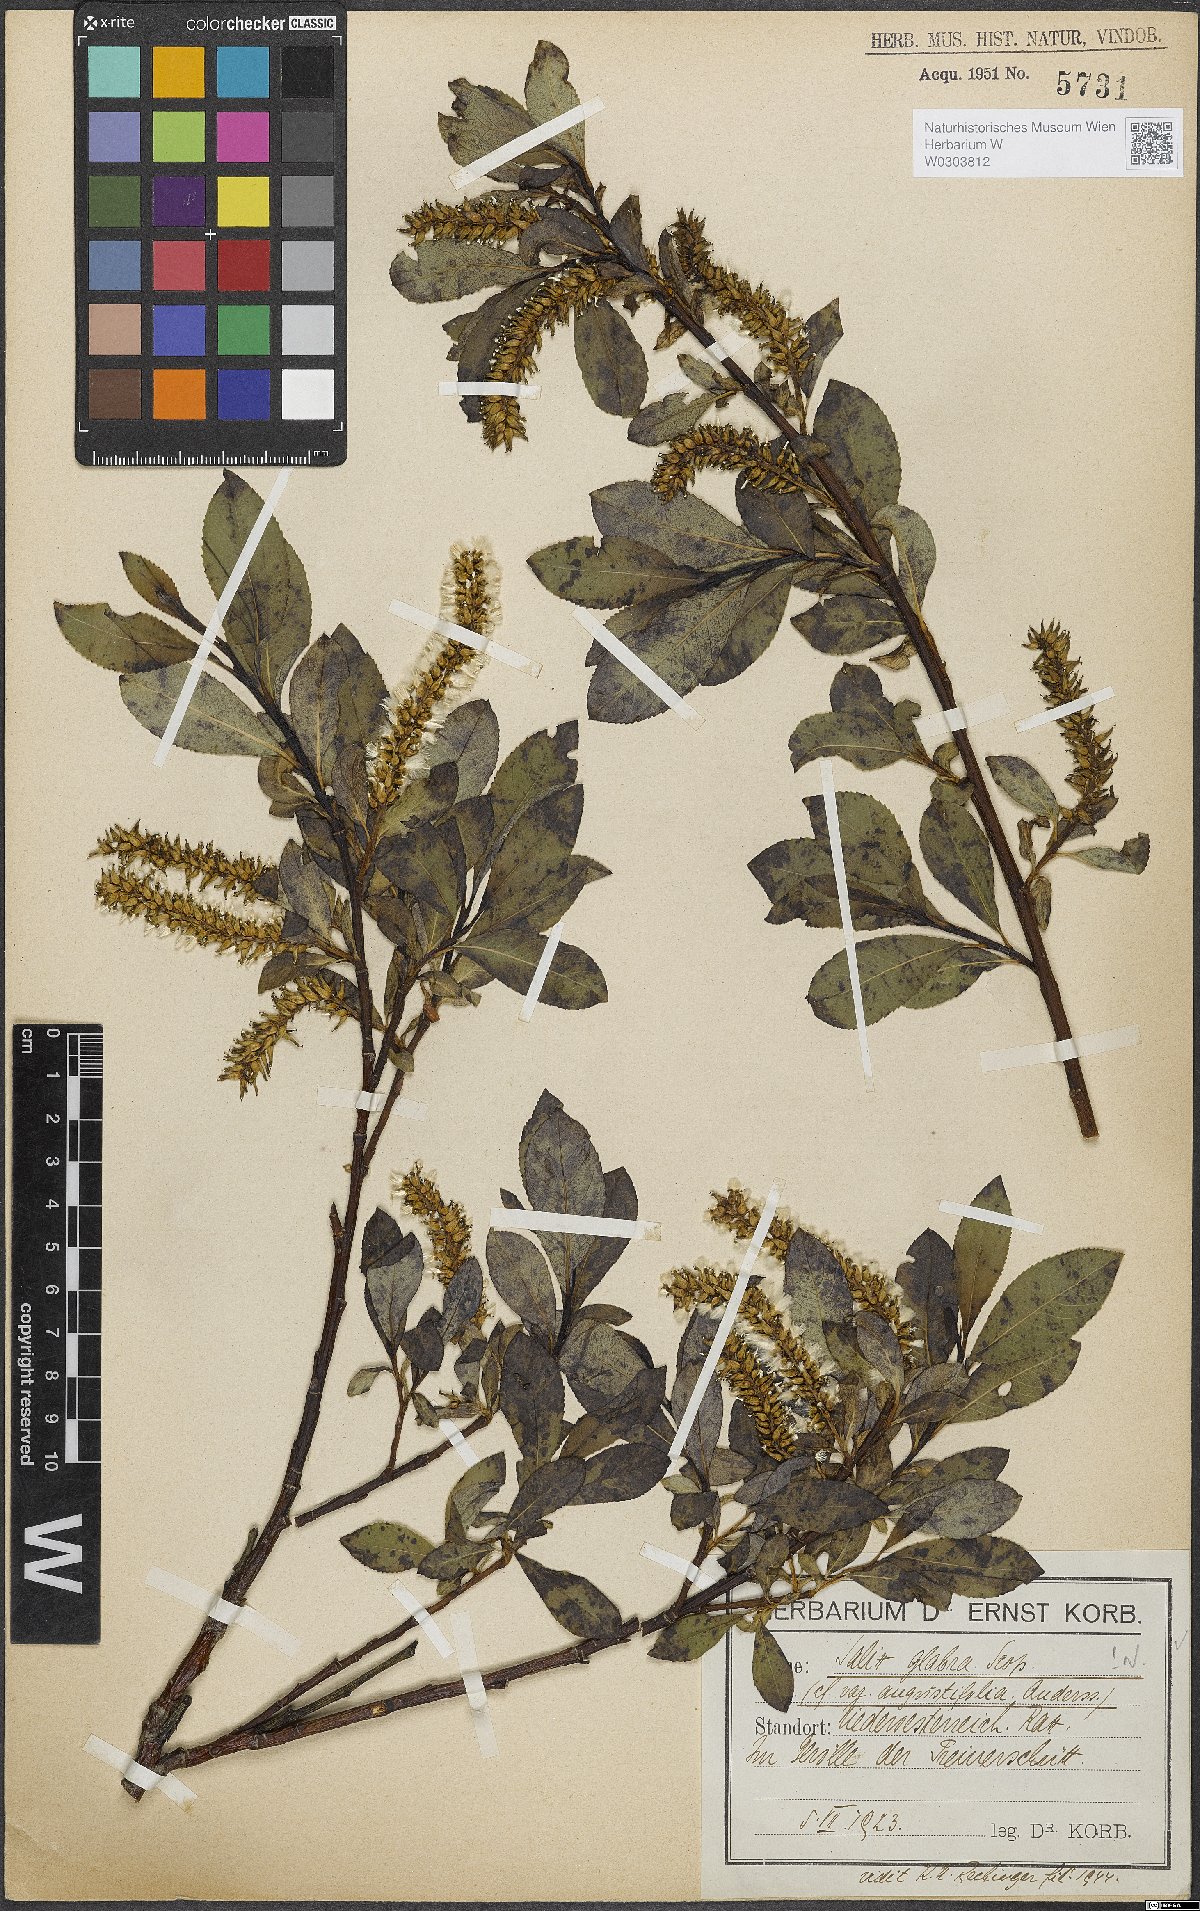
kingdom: Plantae
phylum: Tracheophyta
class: Magnoliopsida
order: Malpighiales
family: Salicaceae
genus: Salix
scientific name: Salix glabra
